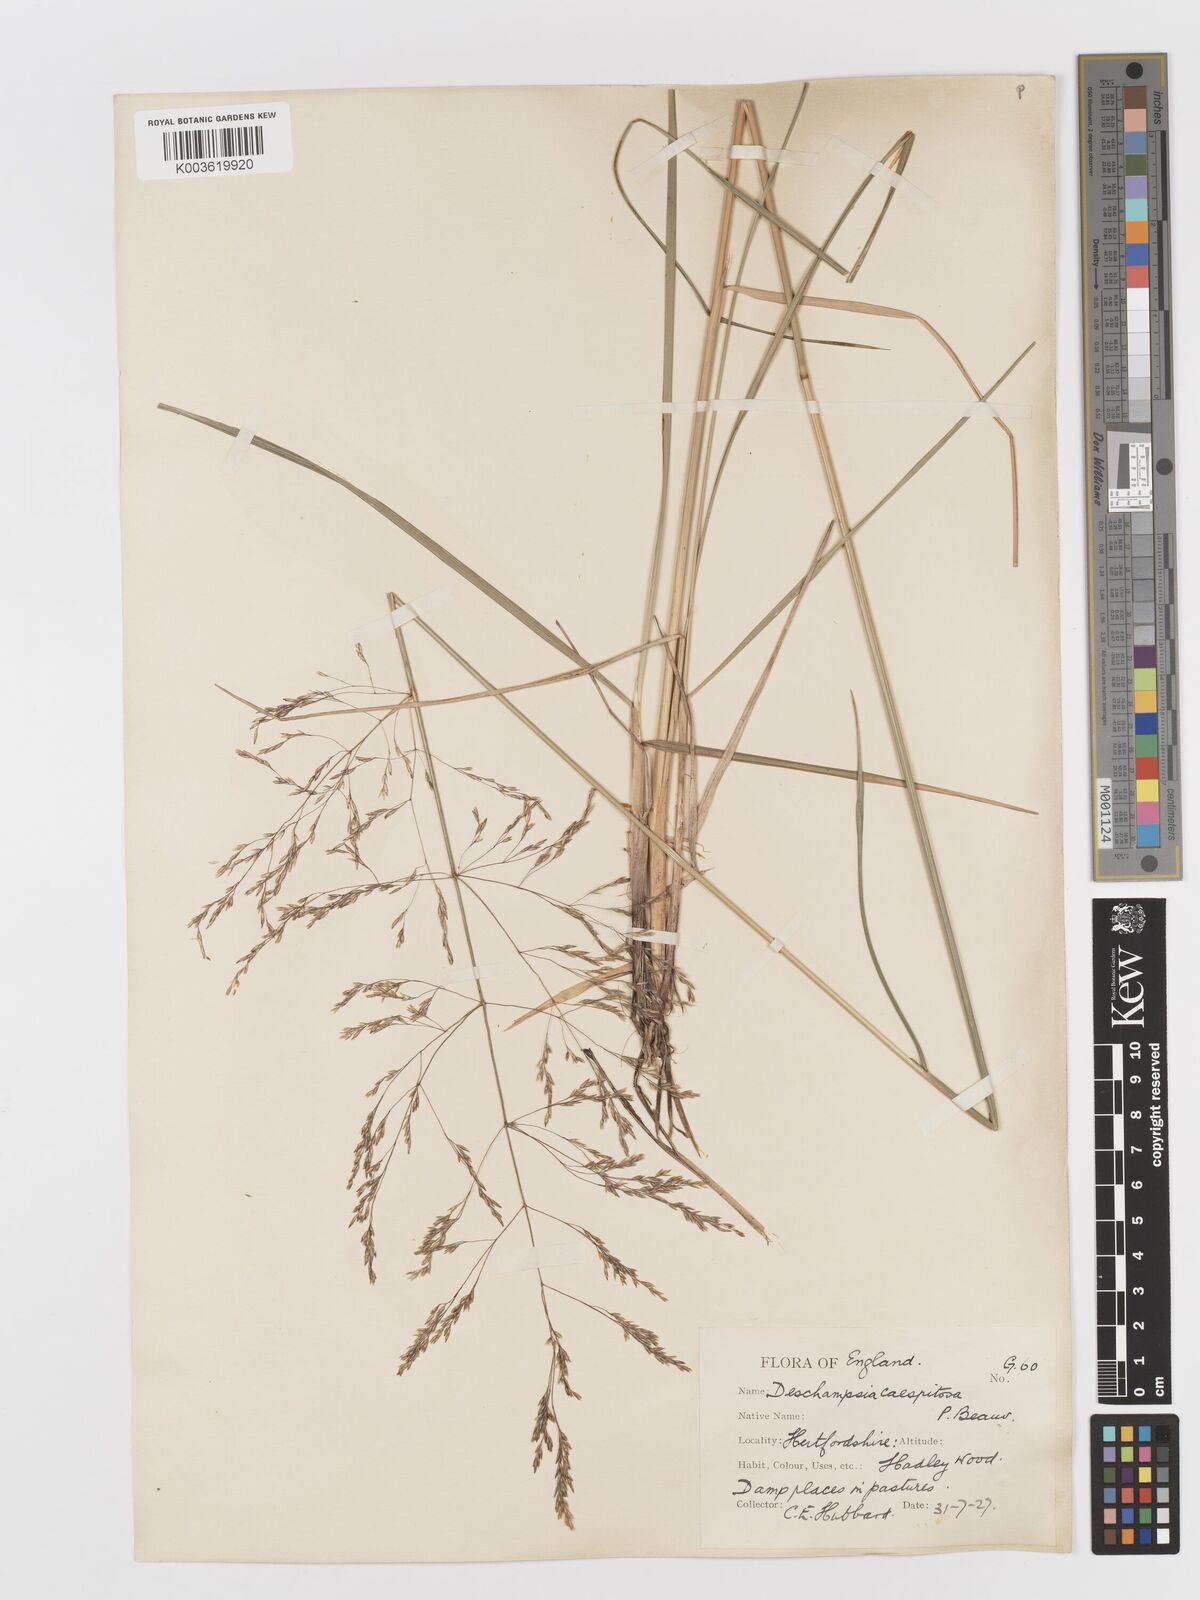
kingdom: Plantae
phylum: Tracheophyta
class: Liliopsida
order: Poales
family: Poaceae
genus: Deschampsia
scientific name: Deschampsia cespitosa
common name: Tufted hair-grass
